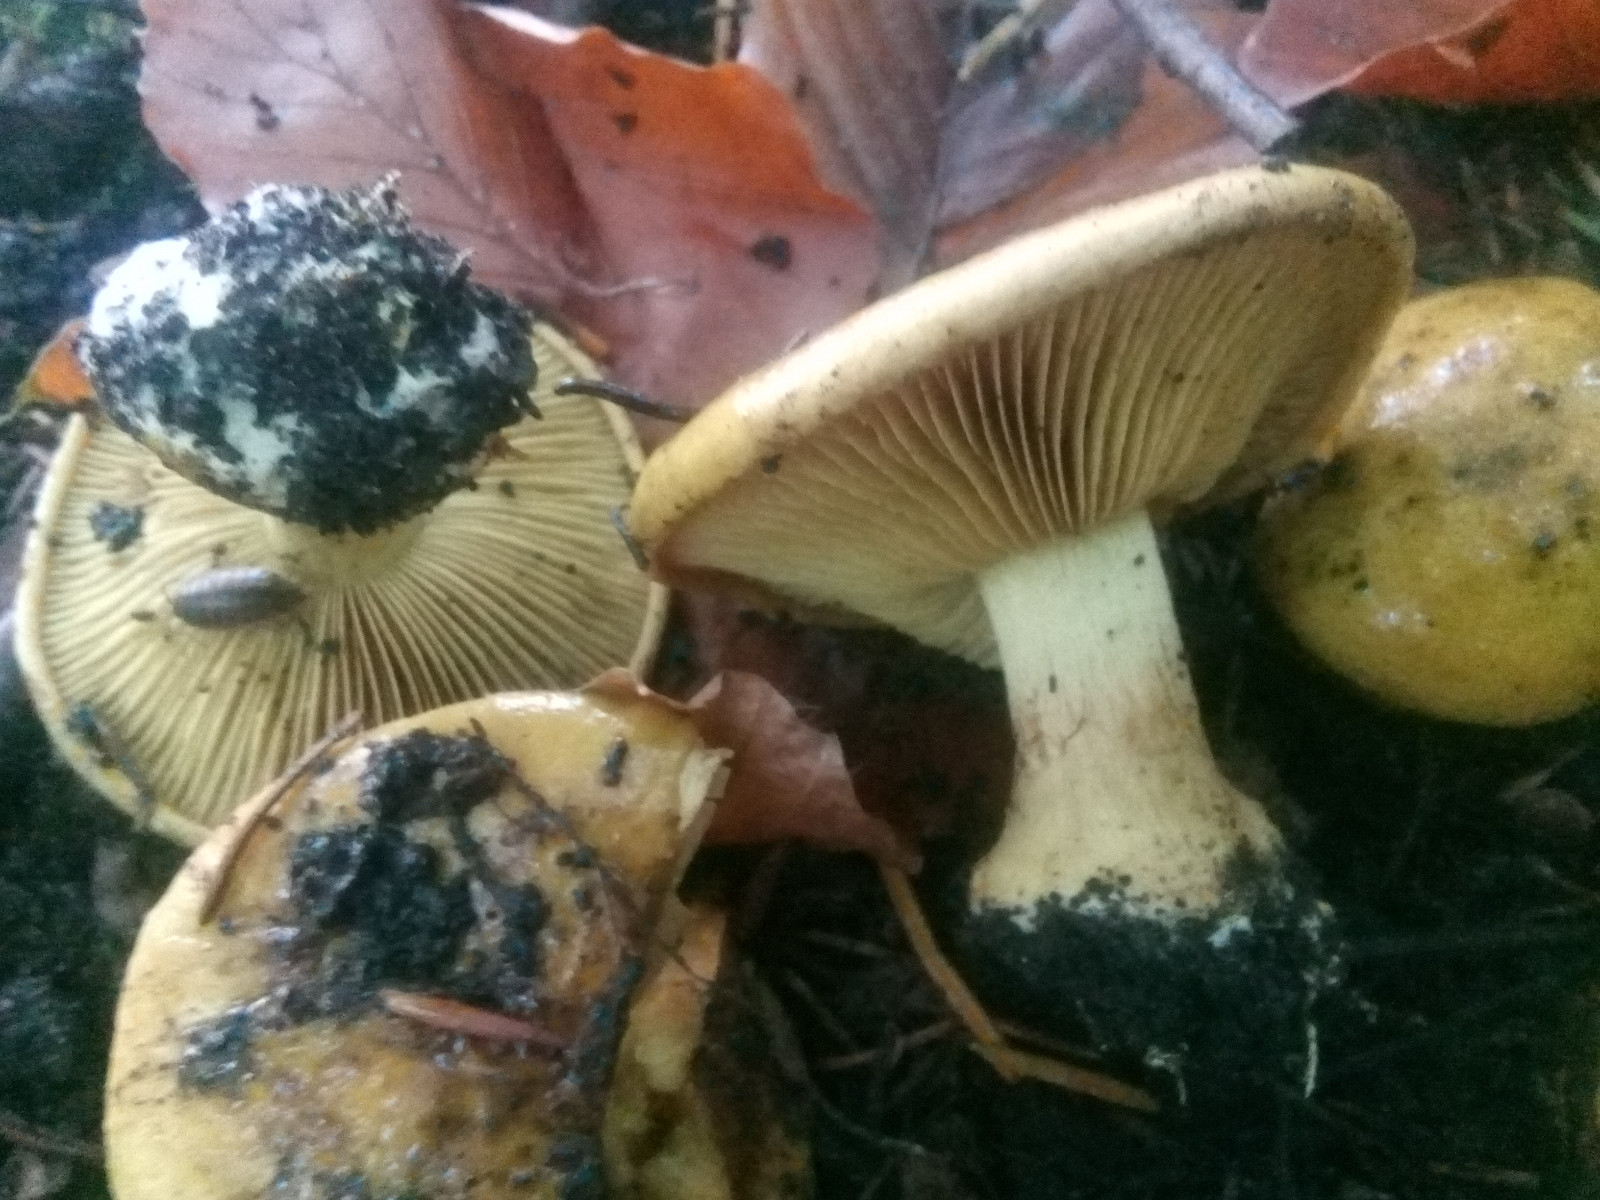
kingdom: Fungi
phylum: Basidiomycota
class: Agaricomycetes
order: Agaricales
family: Cortinariaceae
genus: Calonarius
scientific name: Calonarius citrinus
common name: citrongul slørhat
